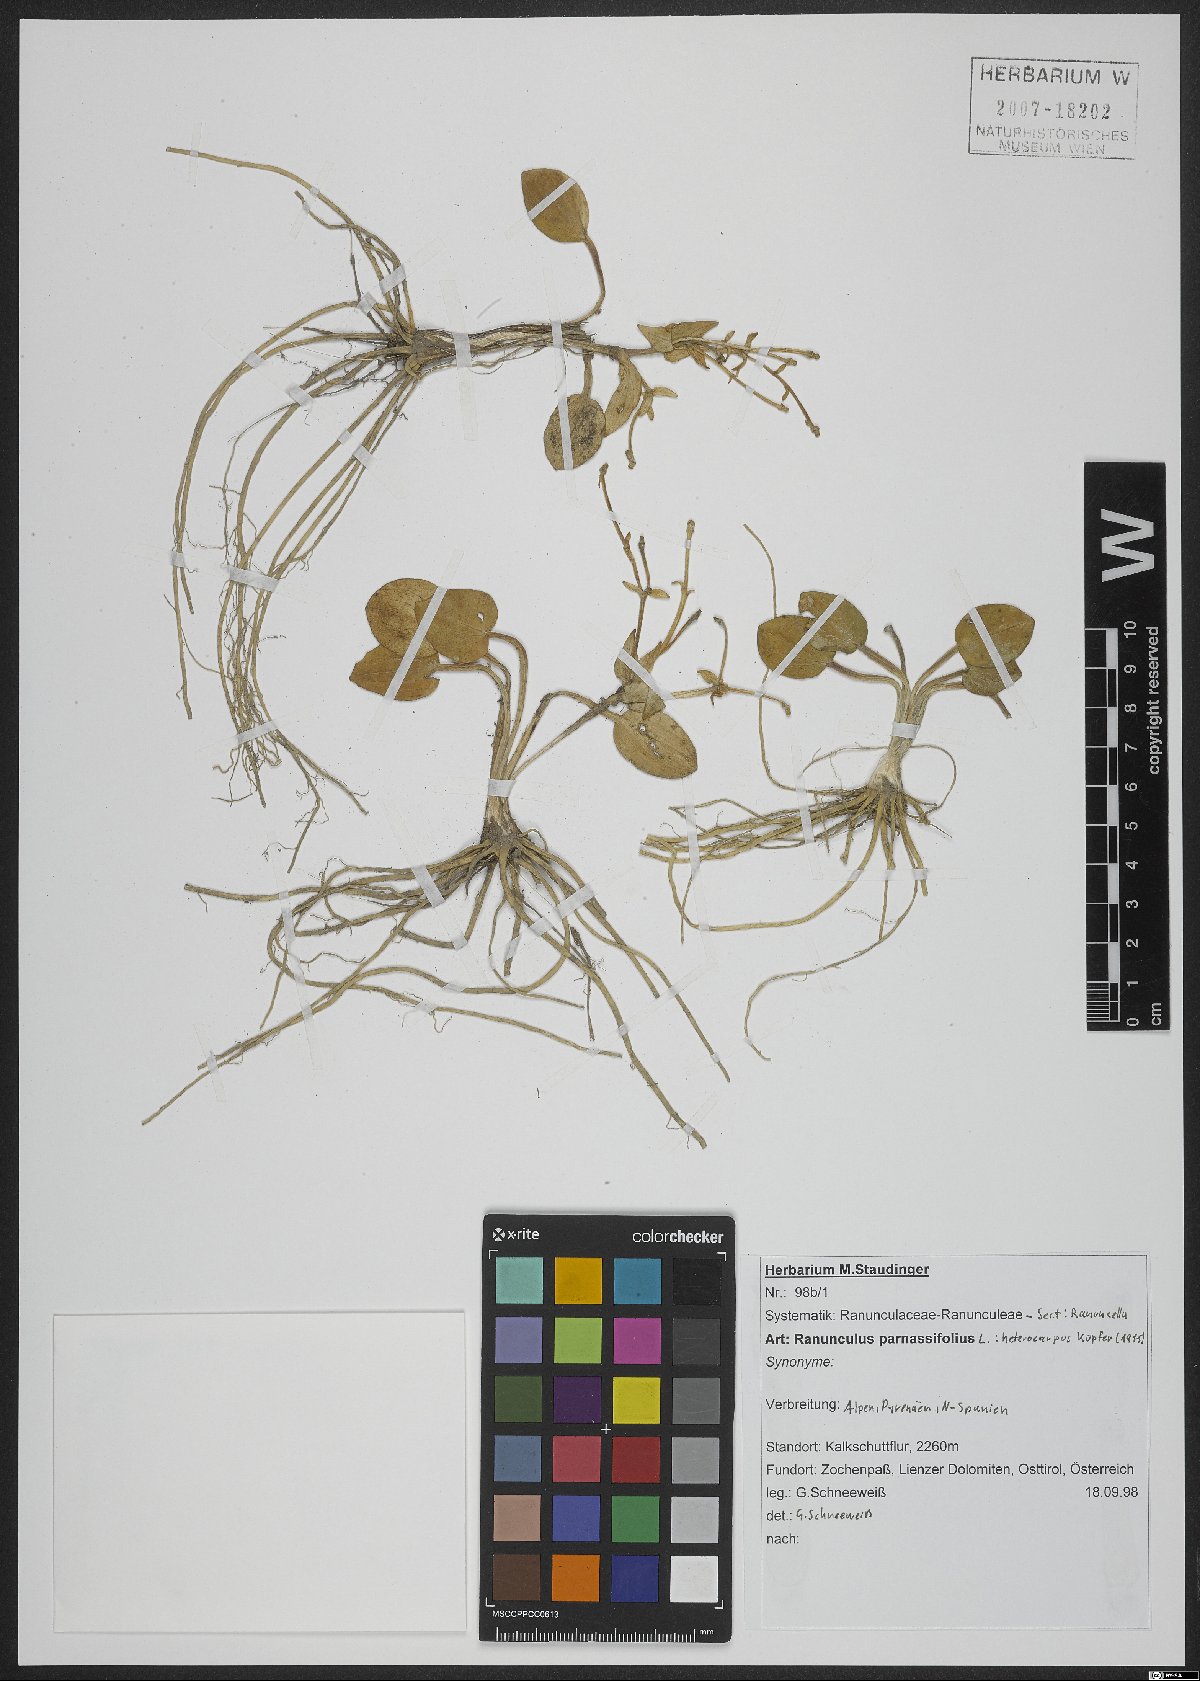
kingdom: Plantae
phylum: Tracheophyta
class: Magnoliopsida
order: Ranunculales
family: Ranunculaceae
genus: Ranunculus
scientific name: Ranunculus parnassiifolius
